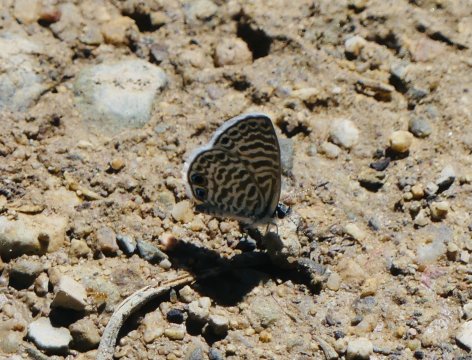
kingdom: Animalia
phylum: Arthropoda
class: Insecta
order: Lepidoptera
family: Lycaenidae
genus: Leptotes
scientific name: Leptotes marina
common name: Marine Blue
